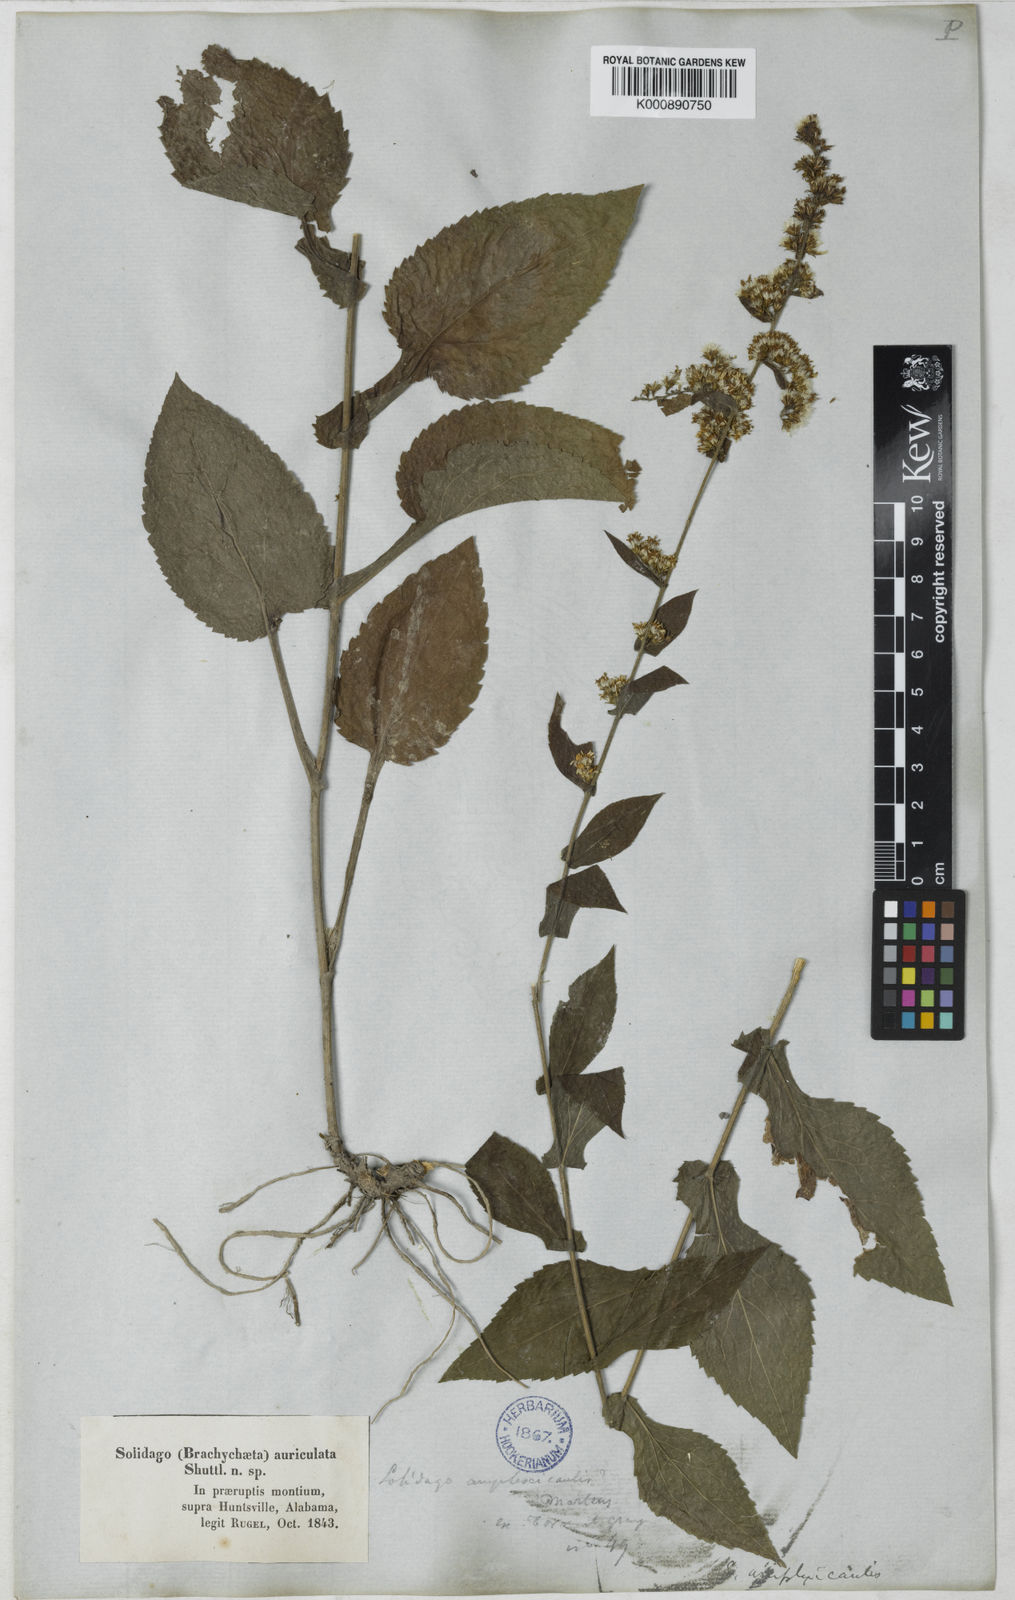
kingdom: Plantae
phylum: Tracheophyta
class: Magnoliopsida
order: Asterales
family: Asteraceae
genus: Solidago
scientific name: Solidago
